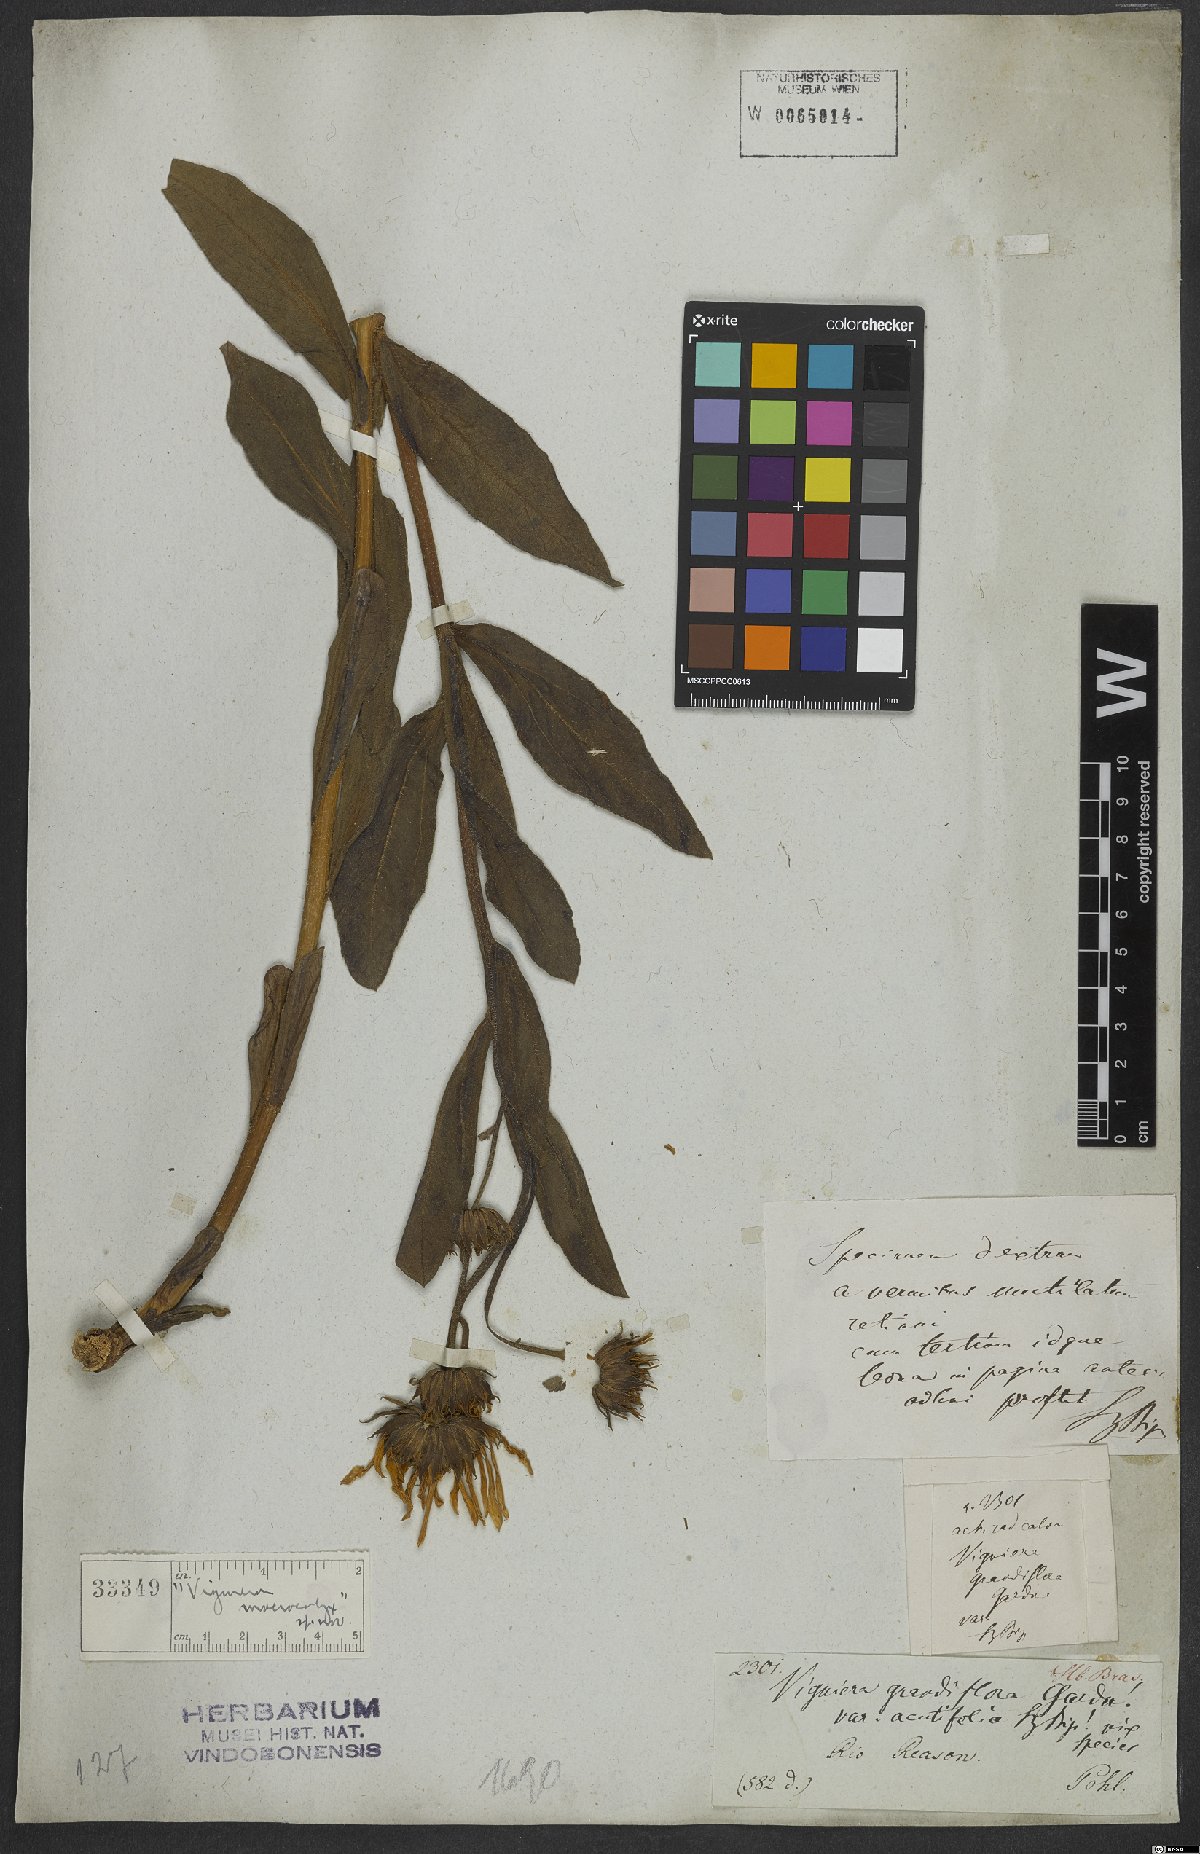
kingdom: Plantae
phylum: Tracheophyta
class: Magnoliopsida
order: Asterales
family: Asteraceae
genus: Aldama
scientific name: Aldama robusta
